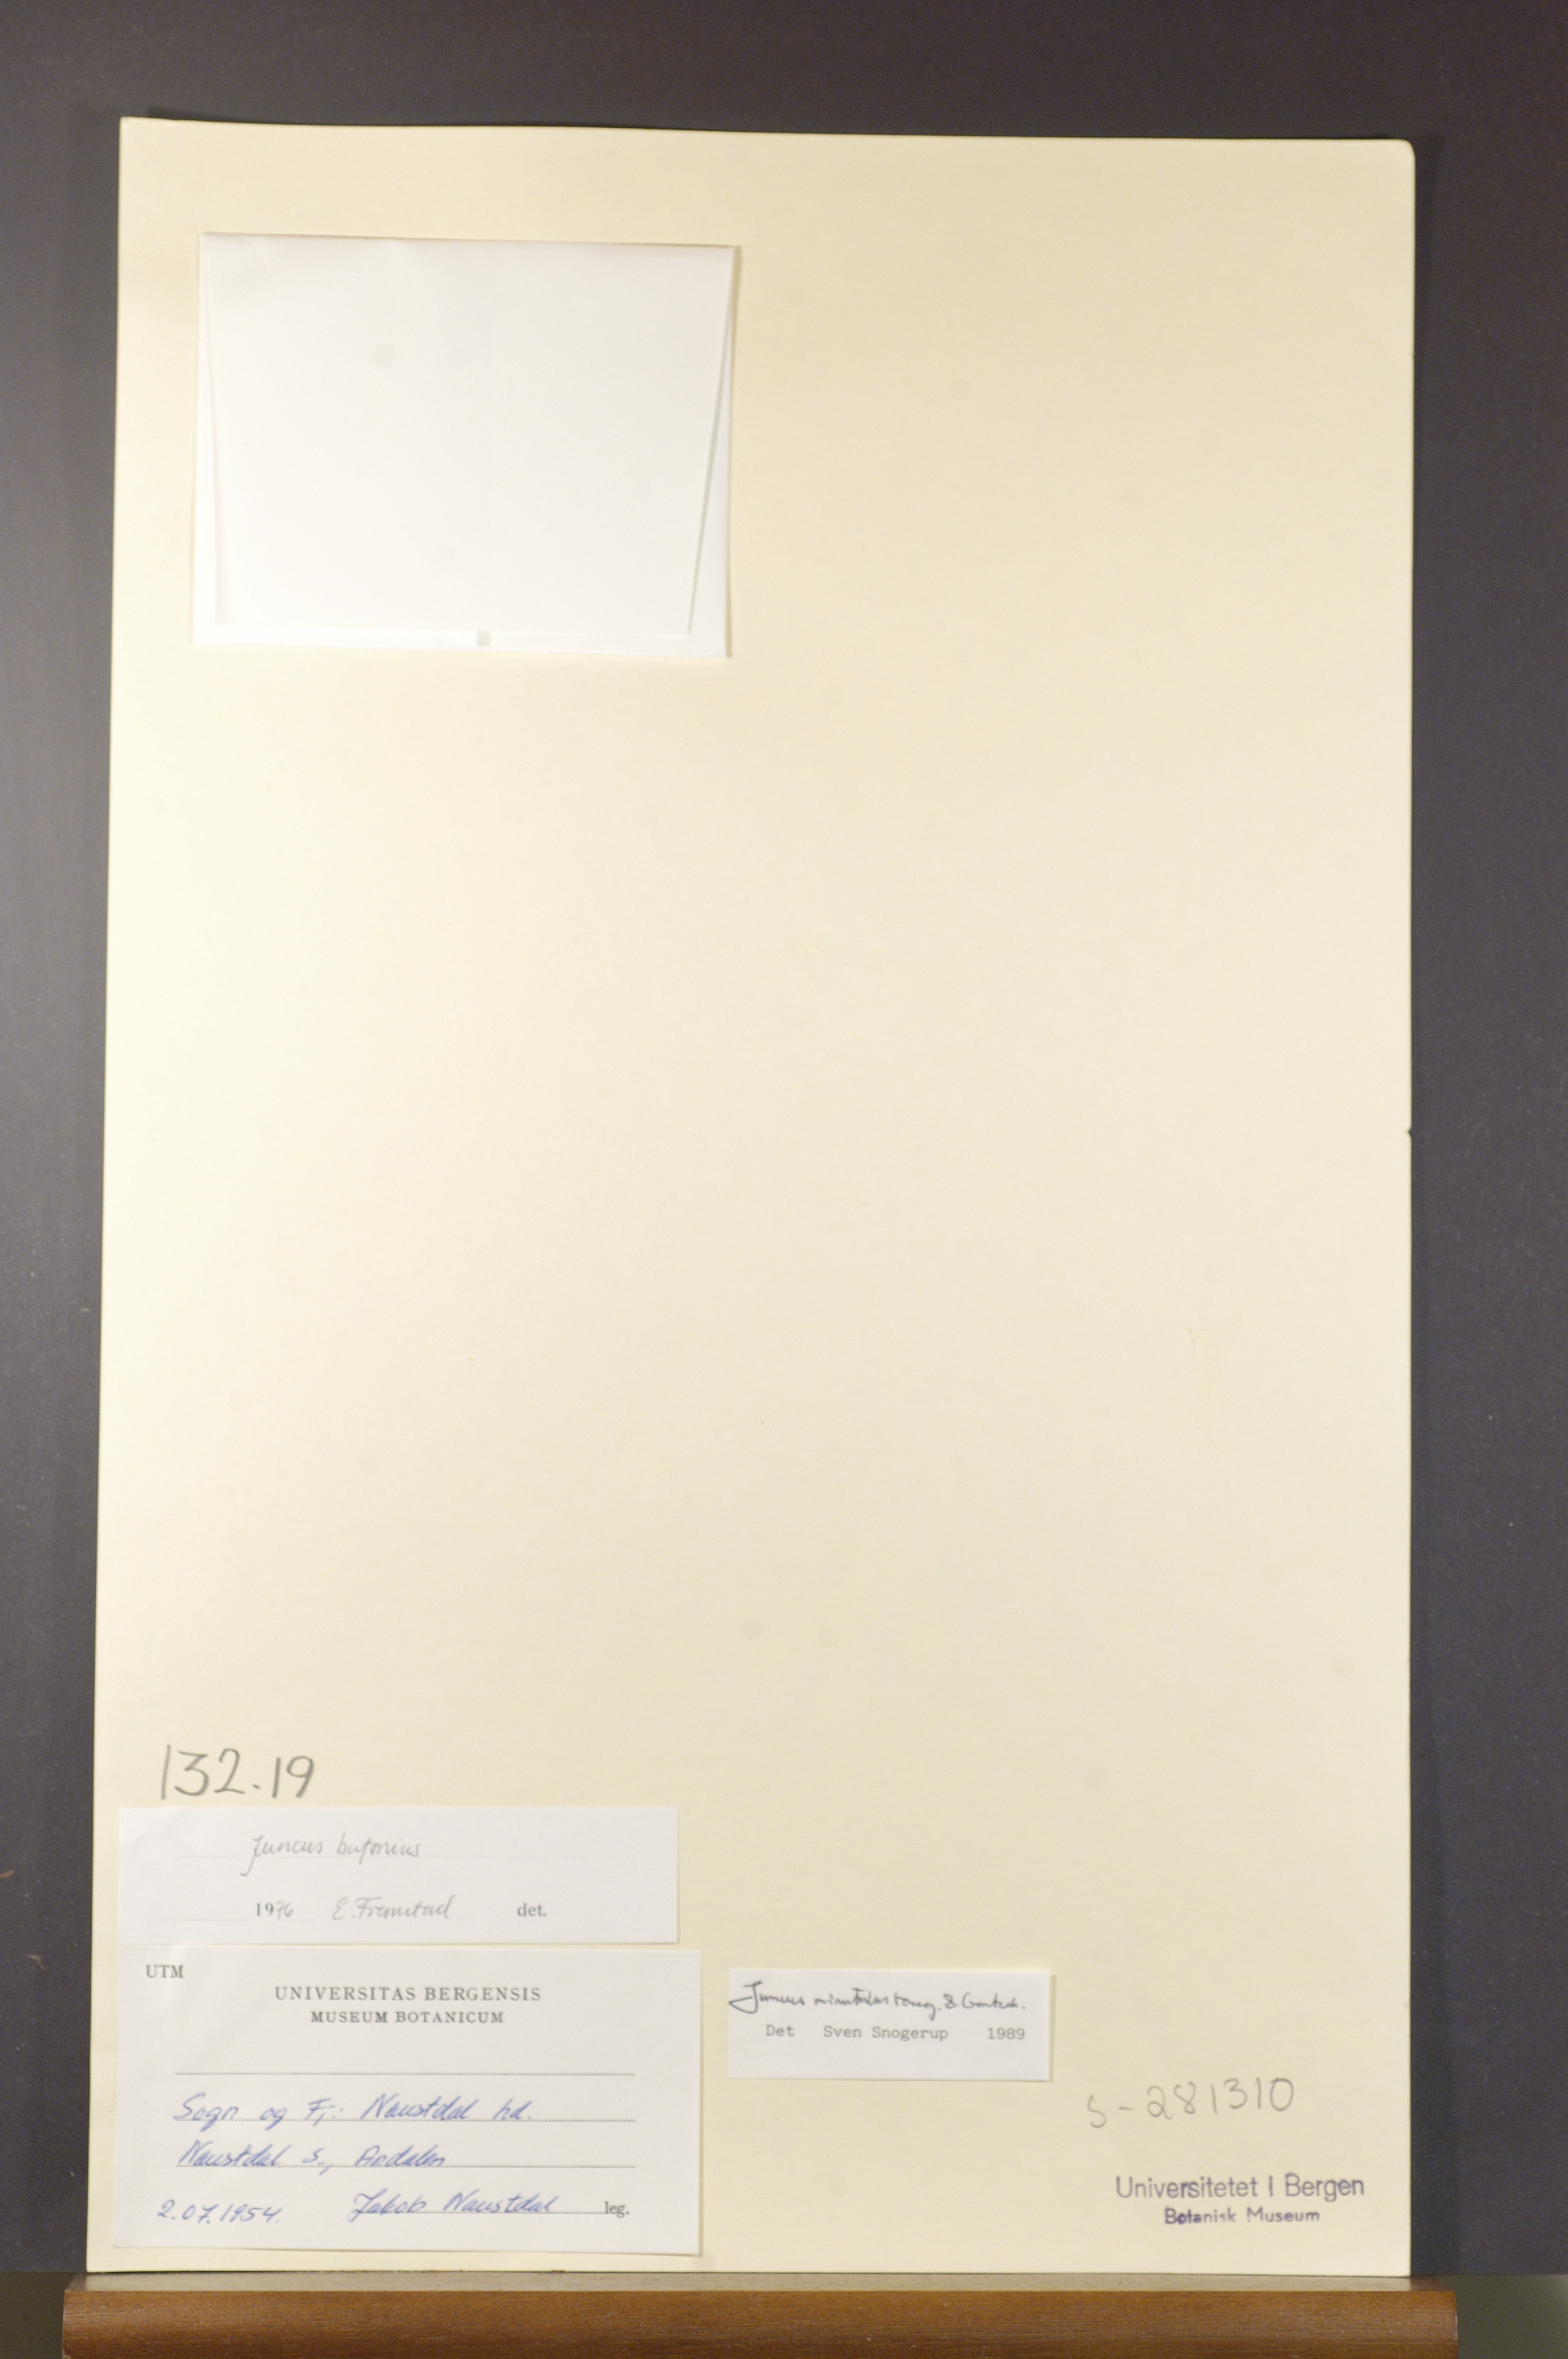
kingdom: Plantae
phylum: Tracheophyta
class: Liliopsida
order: Poales
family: Juncaceae
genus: Juncus
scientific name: Juncus minutulus
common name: Minute rush
